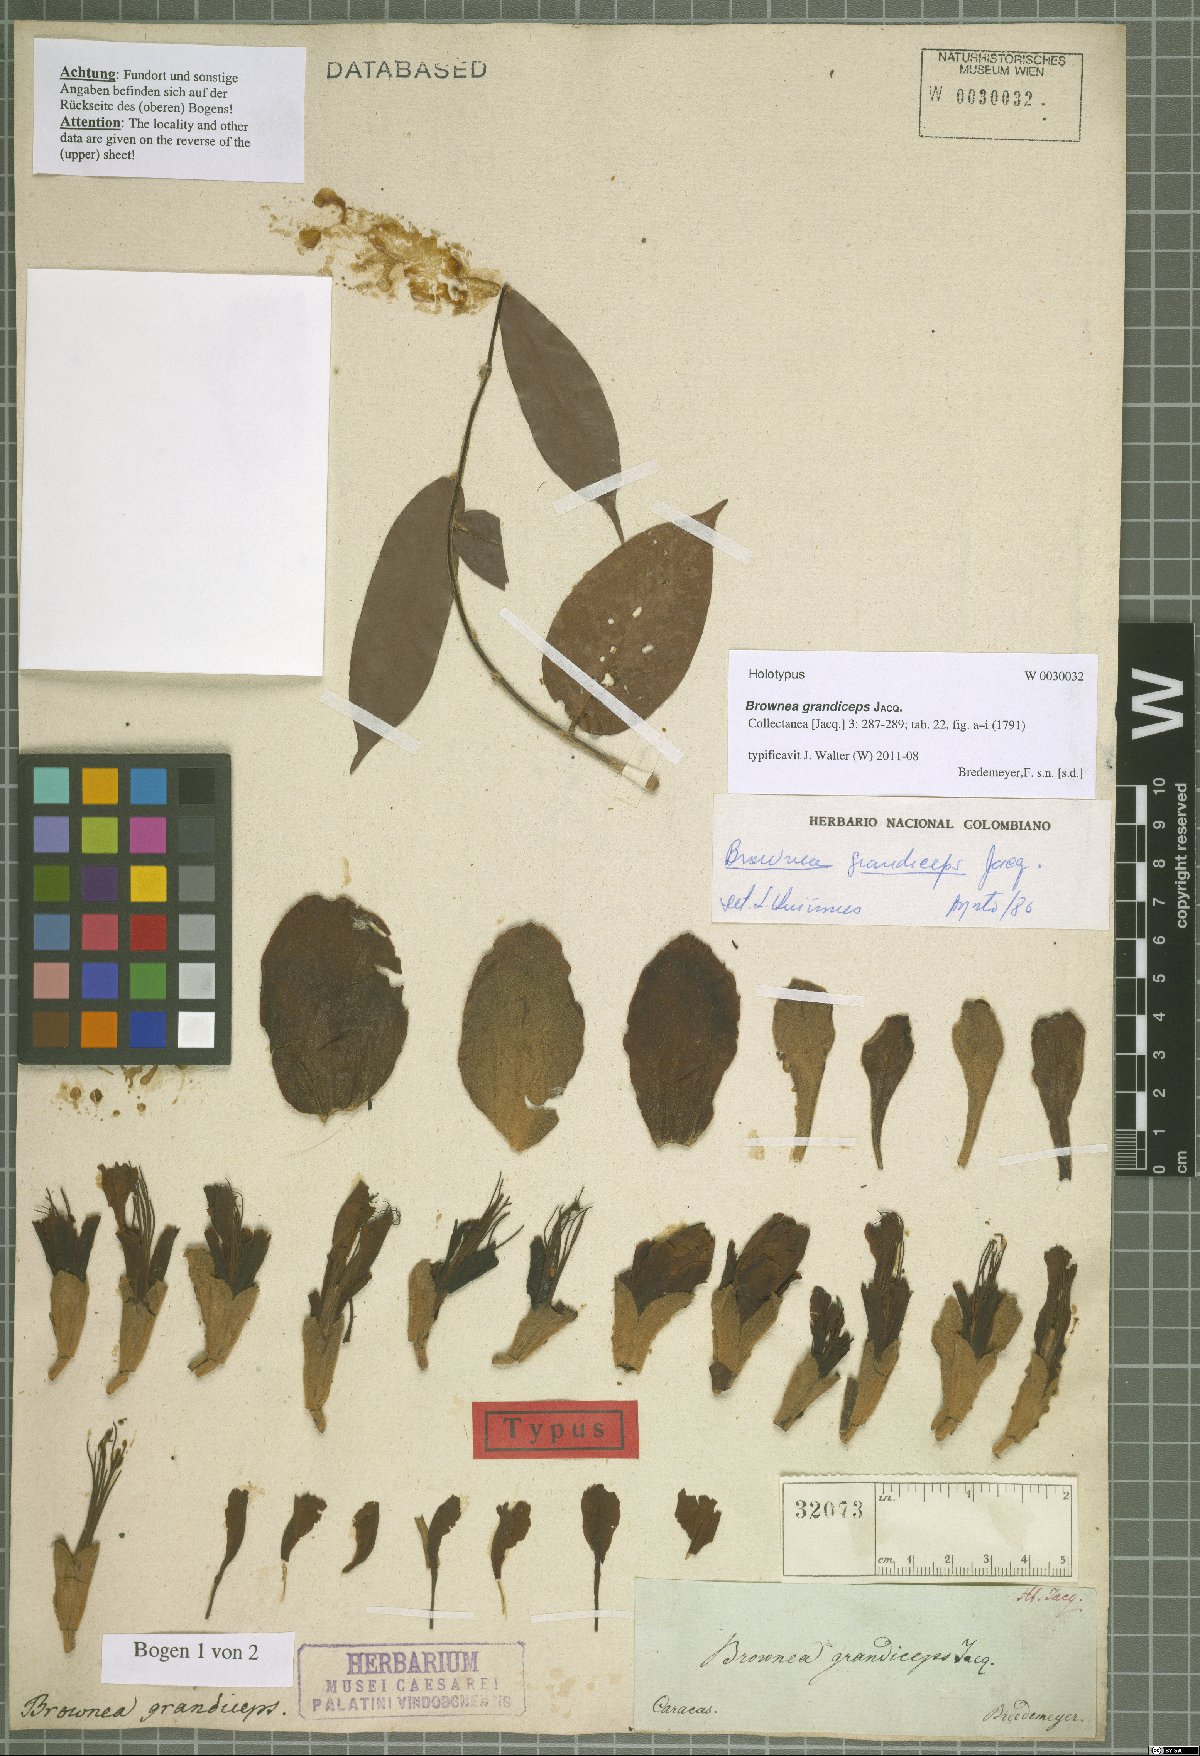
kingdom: Plantae
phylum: Tracheophyta
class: Magnoliopsida
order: Fabales
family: Fabaceae
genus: Brownea
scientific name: Brownea grandiceps
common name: Rose-of-venezuela
